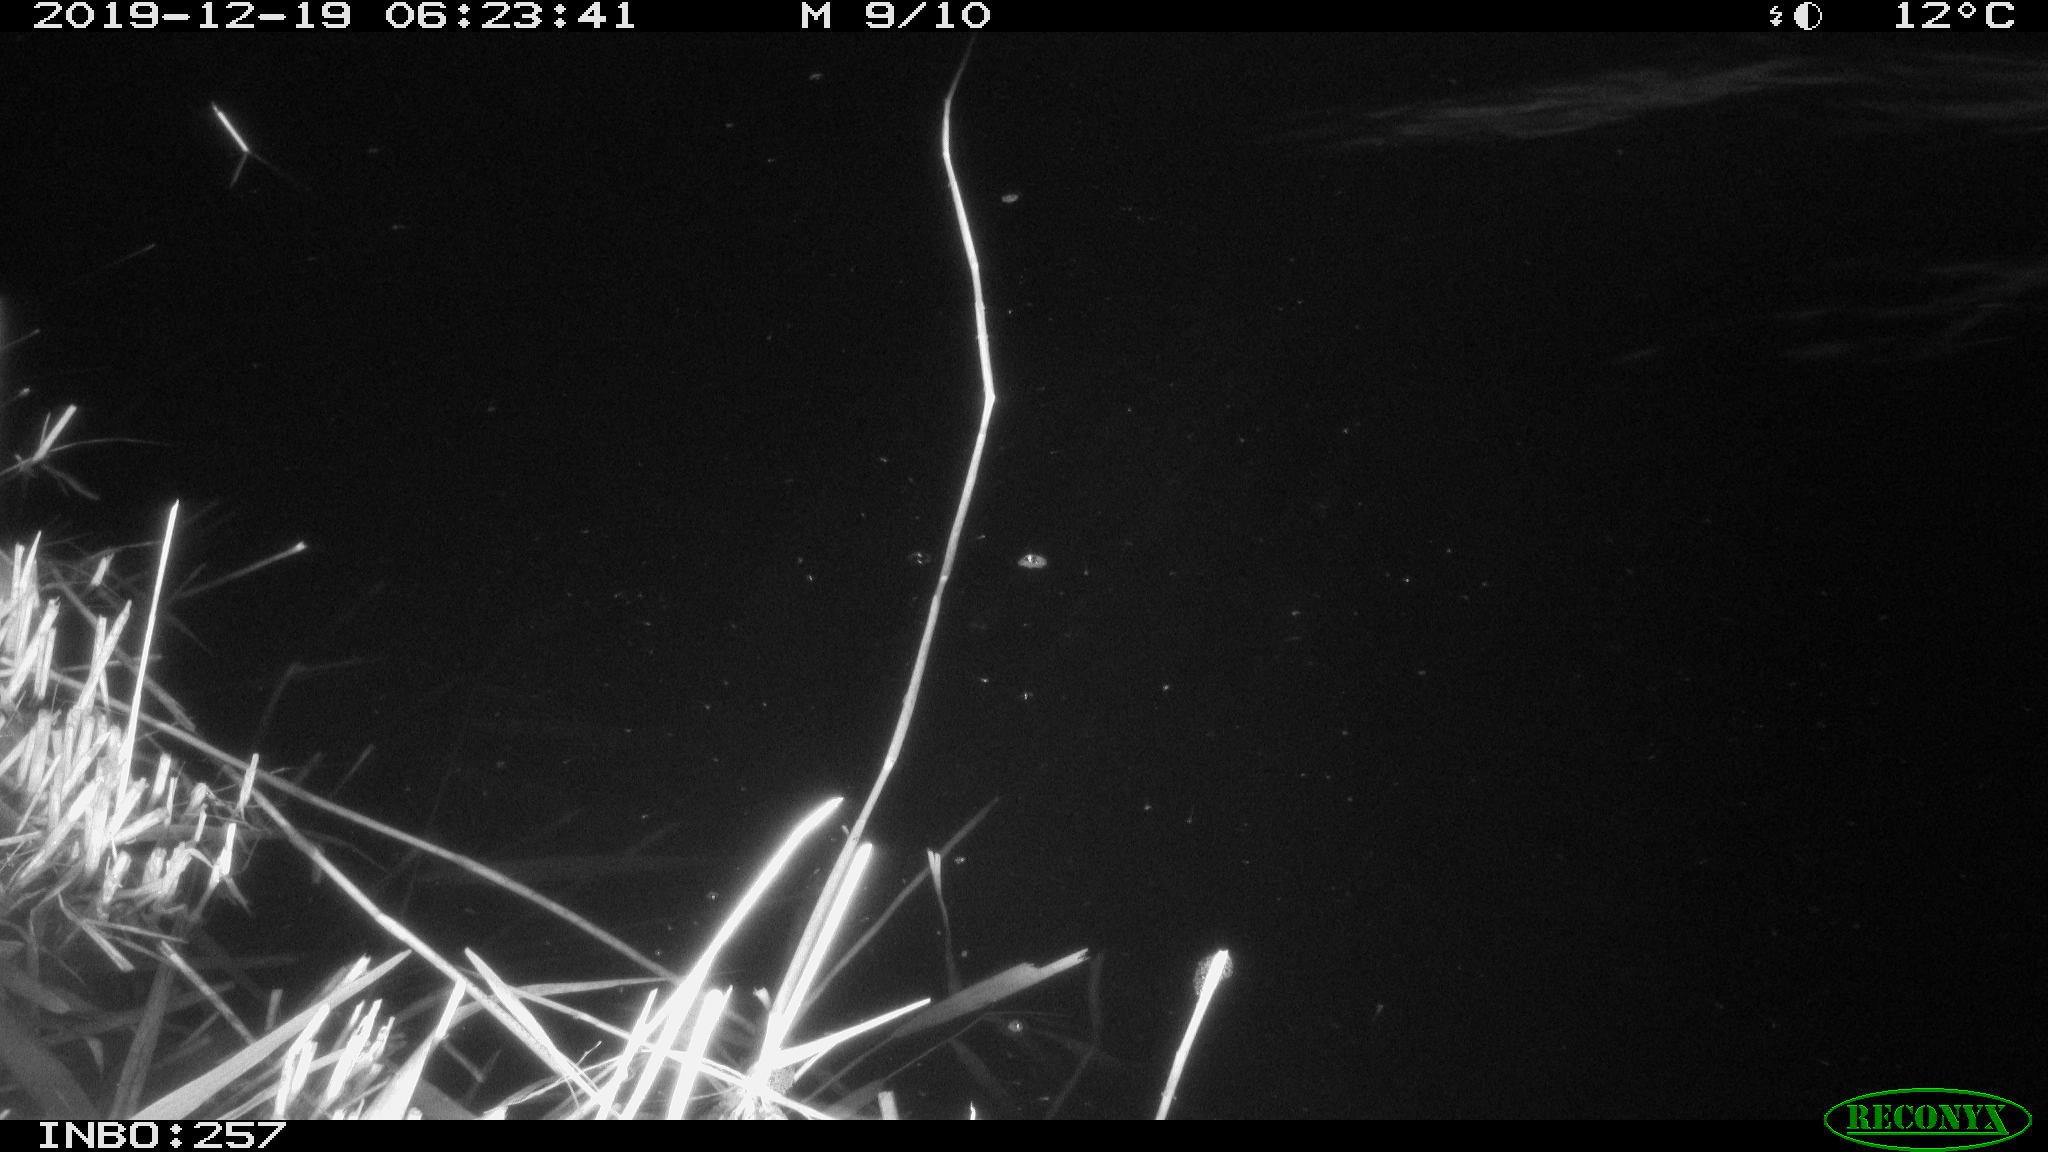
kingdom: Animalia
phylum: Chordata
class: Aves
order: Anseriformes
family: Anatidae
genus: Anas
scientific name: Anas platyrhynchos
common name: Mallard
